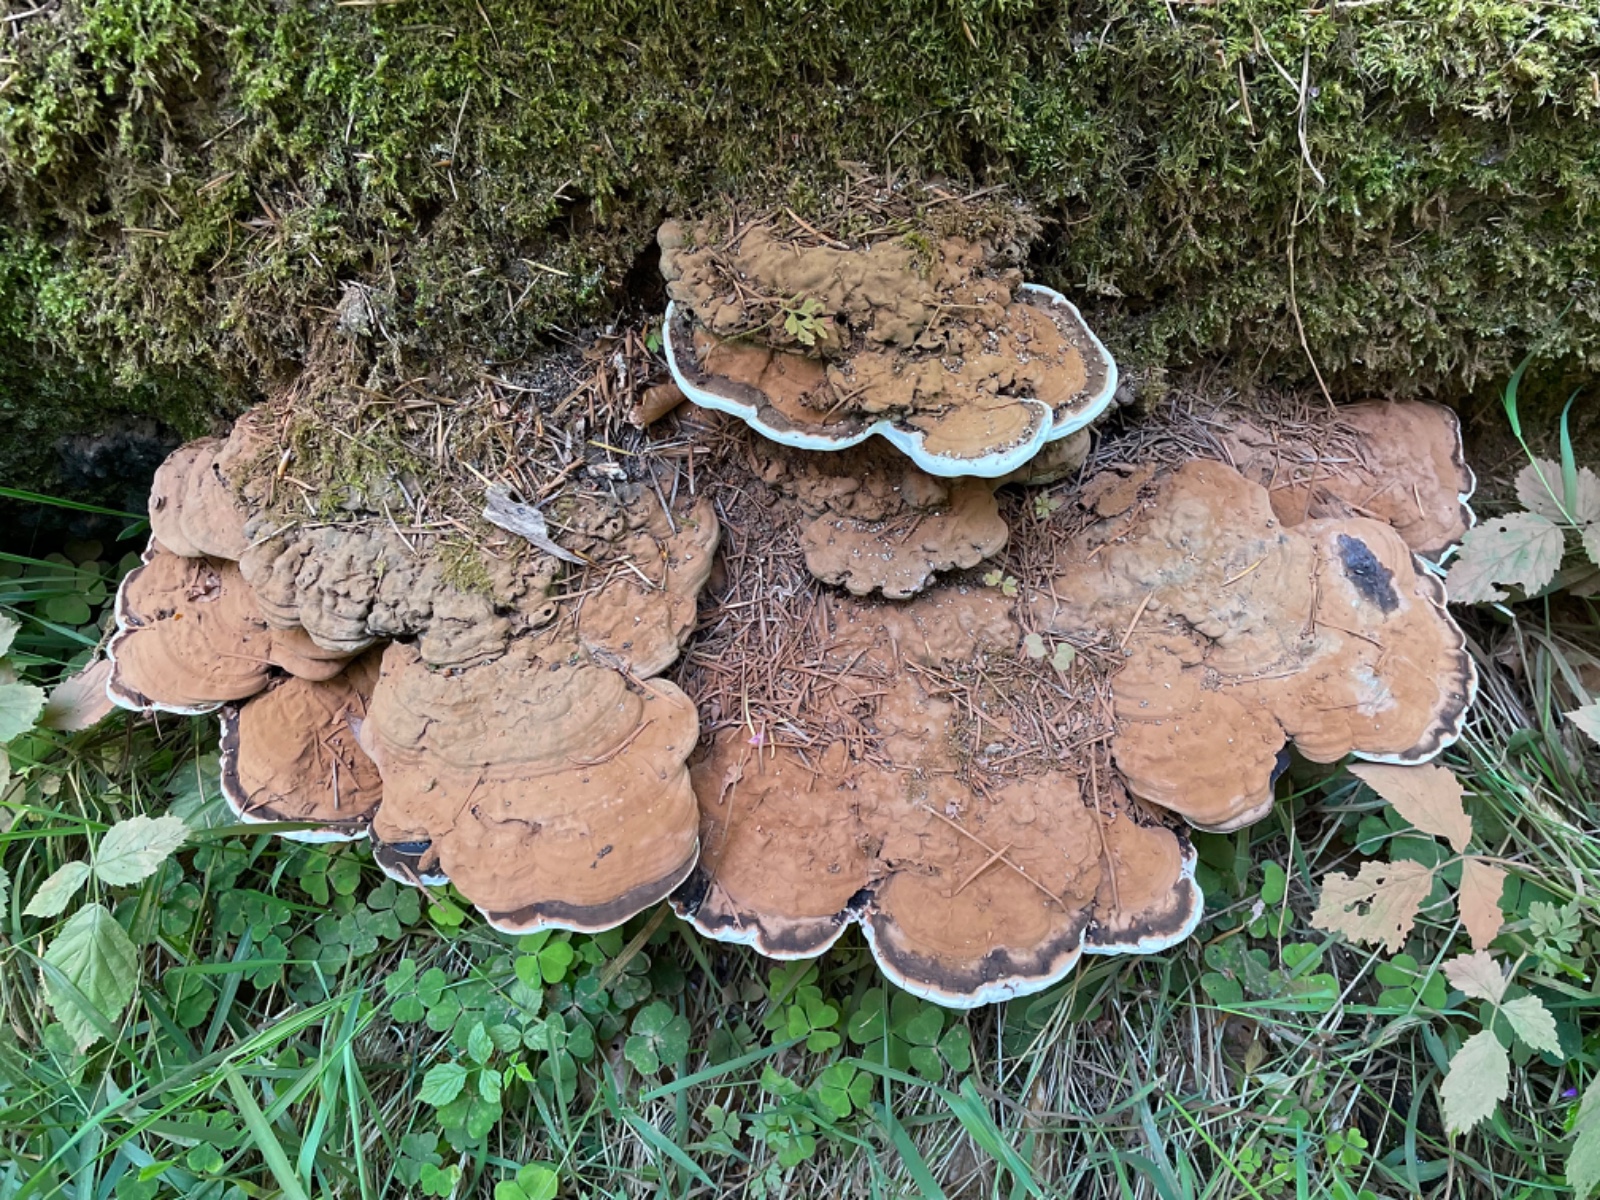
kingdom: Fungi
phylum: Basidiomycota
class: Agaricomycetes
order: Polyporales
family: Polyporaceae
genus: Ganoderma
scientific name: Ganoderma applanatum
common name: flad lakporesvamp
